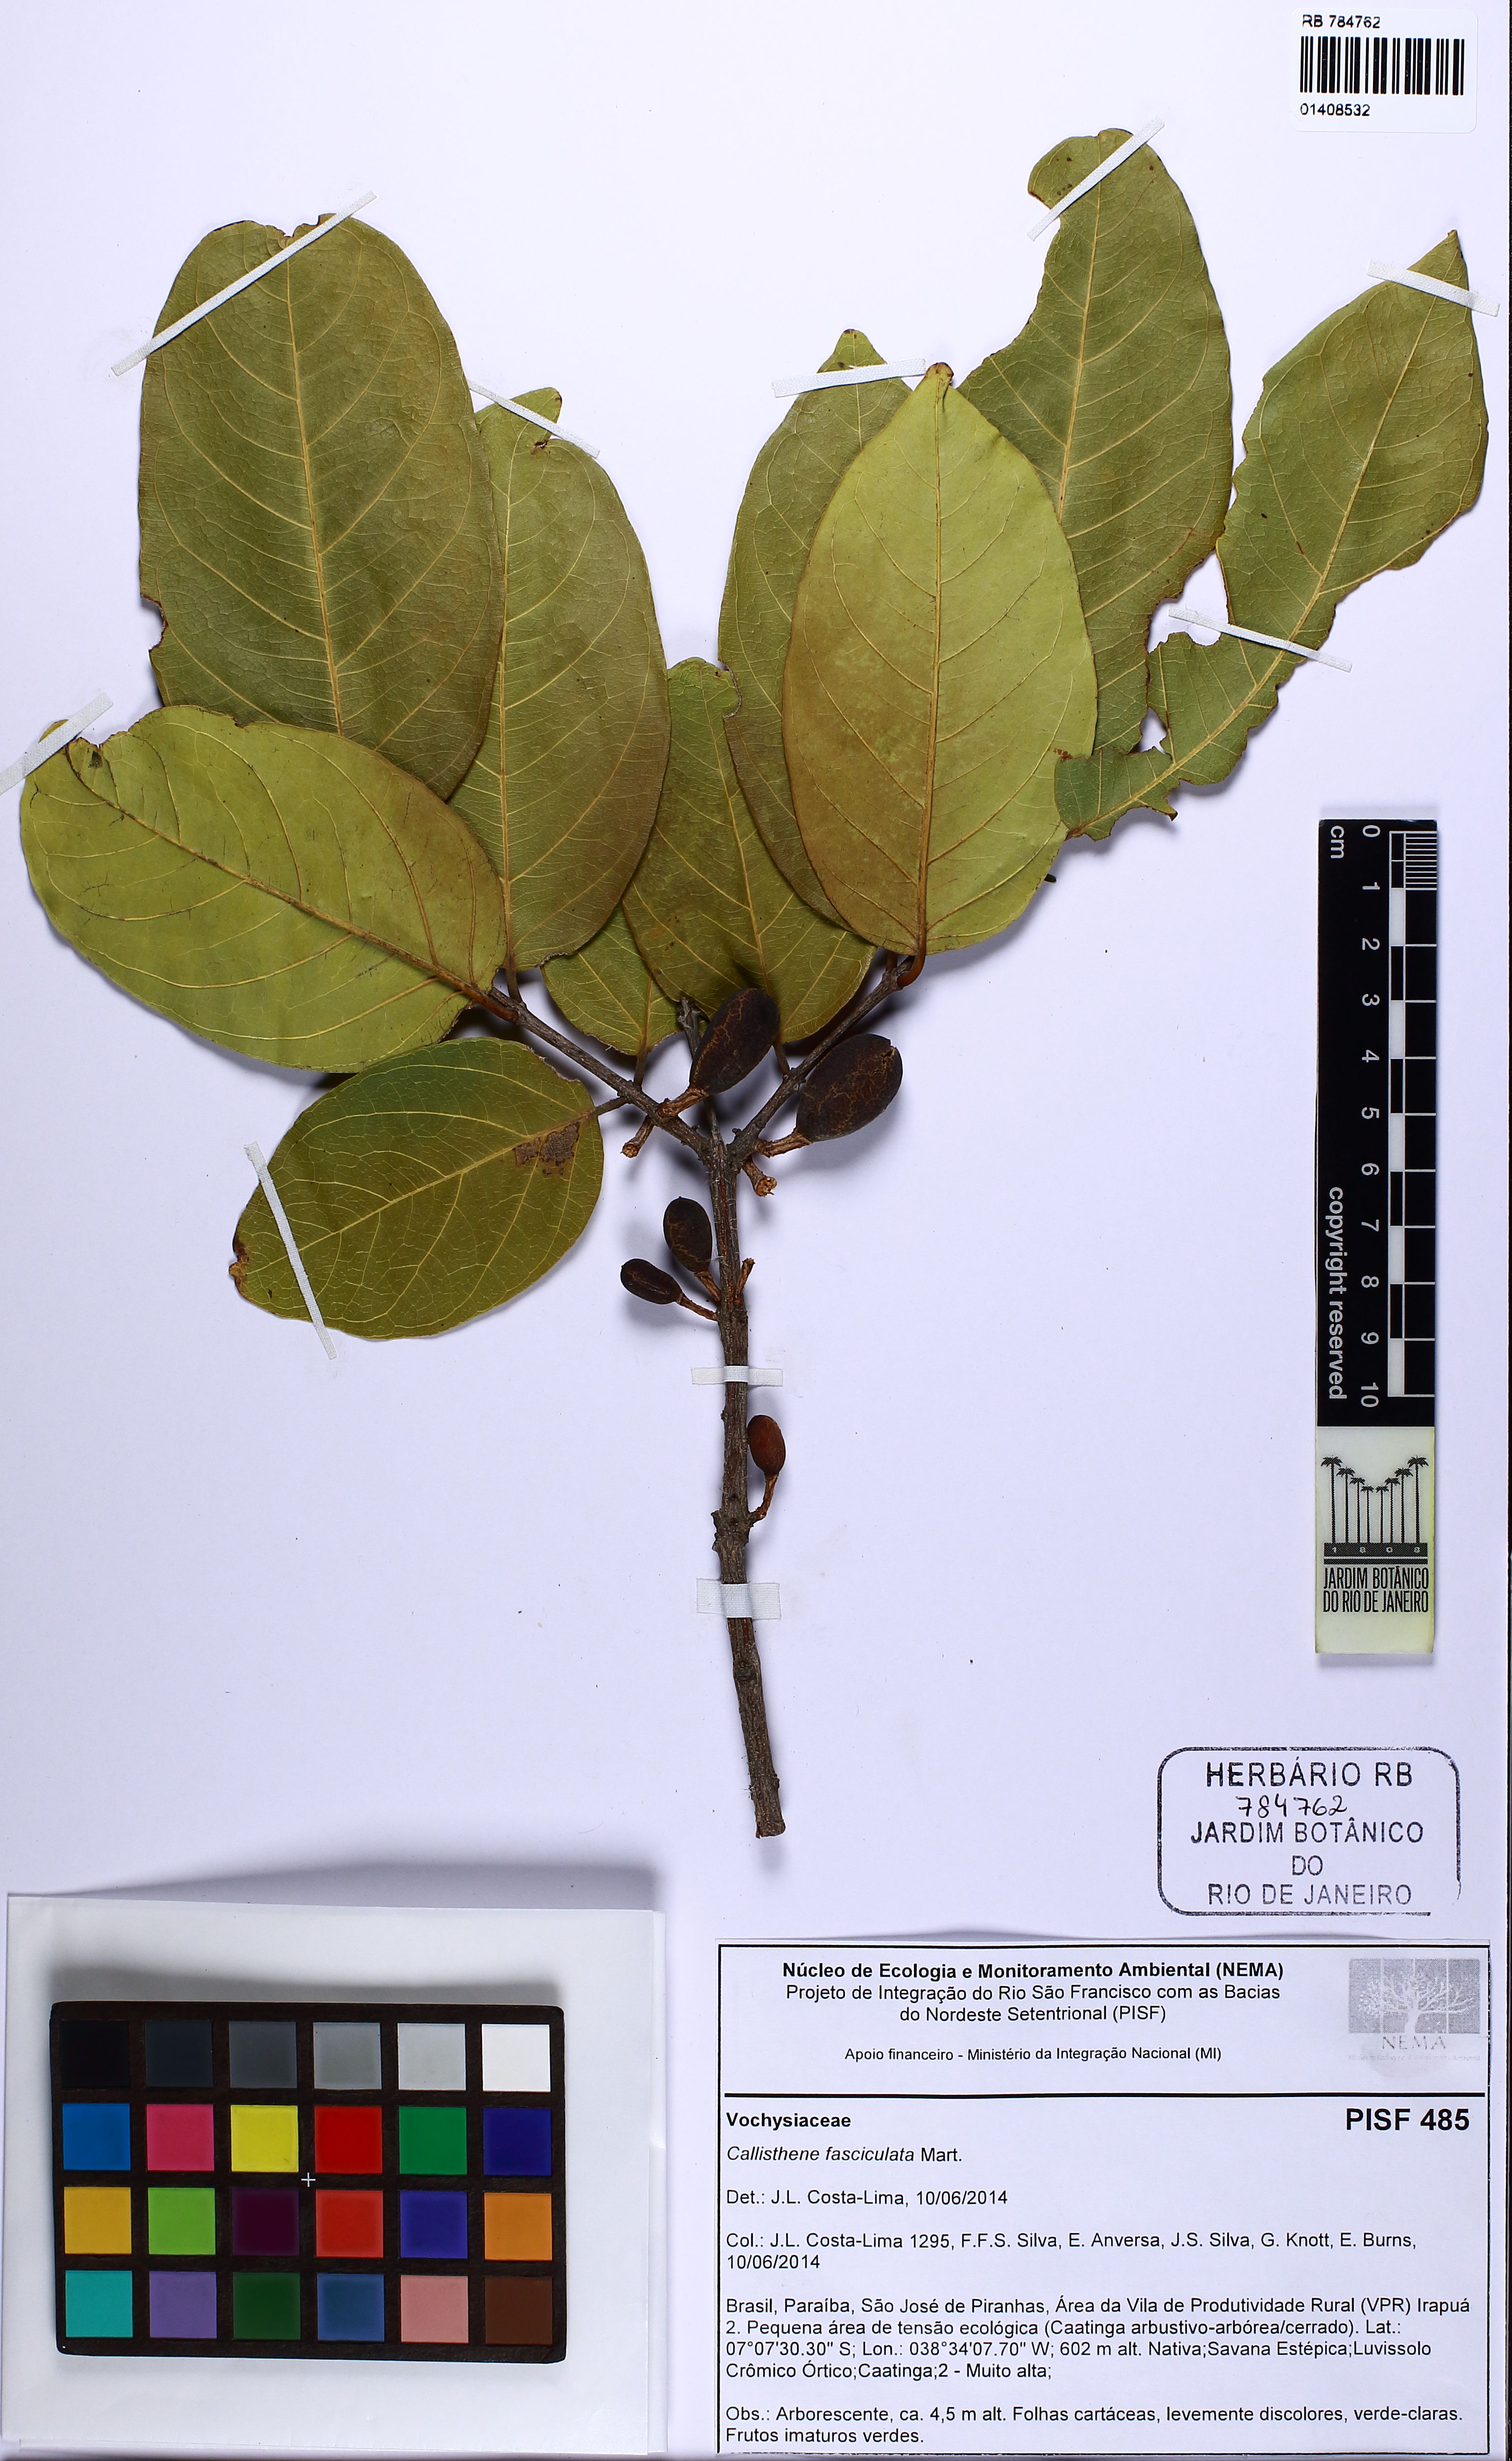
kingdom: Plantae
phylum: Tracheophyta
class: Magnoliopsida
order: Myrtales
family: Vochysiaceae
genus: Callisthene
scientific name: Callisthene fasciculata
